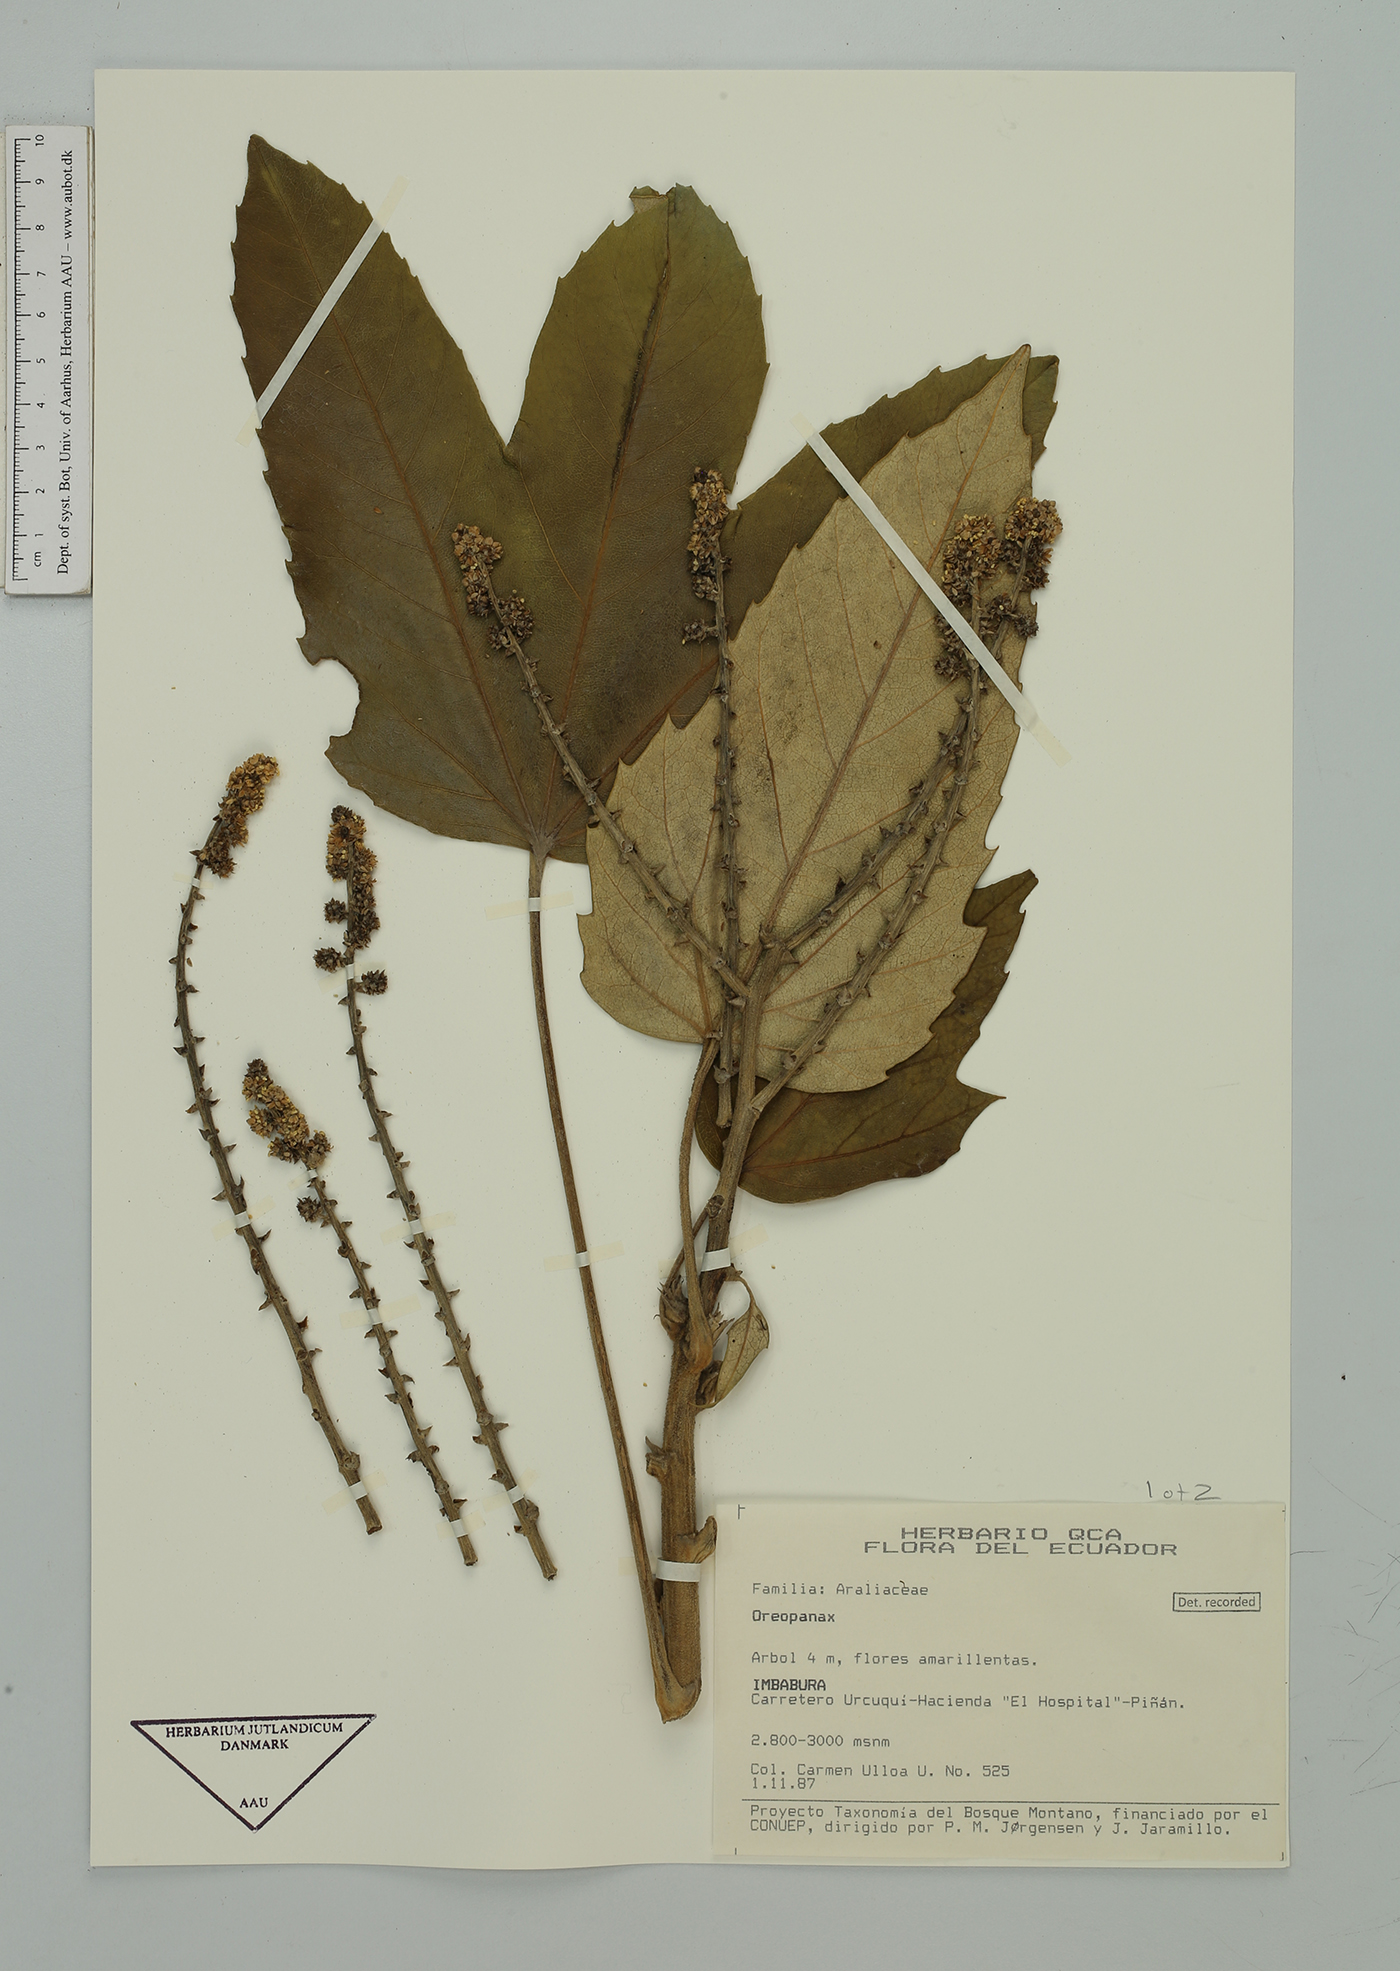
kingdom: Plantae
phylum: Tracheophyta
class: Magnoliopsida
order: Apiales
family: Araliaceae
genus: Oreopanax
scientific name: Oreopanax
